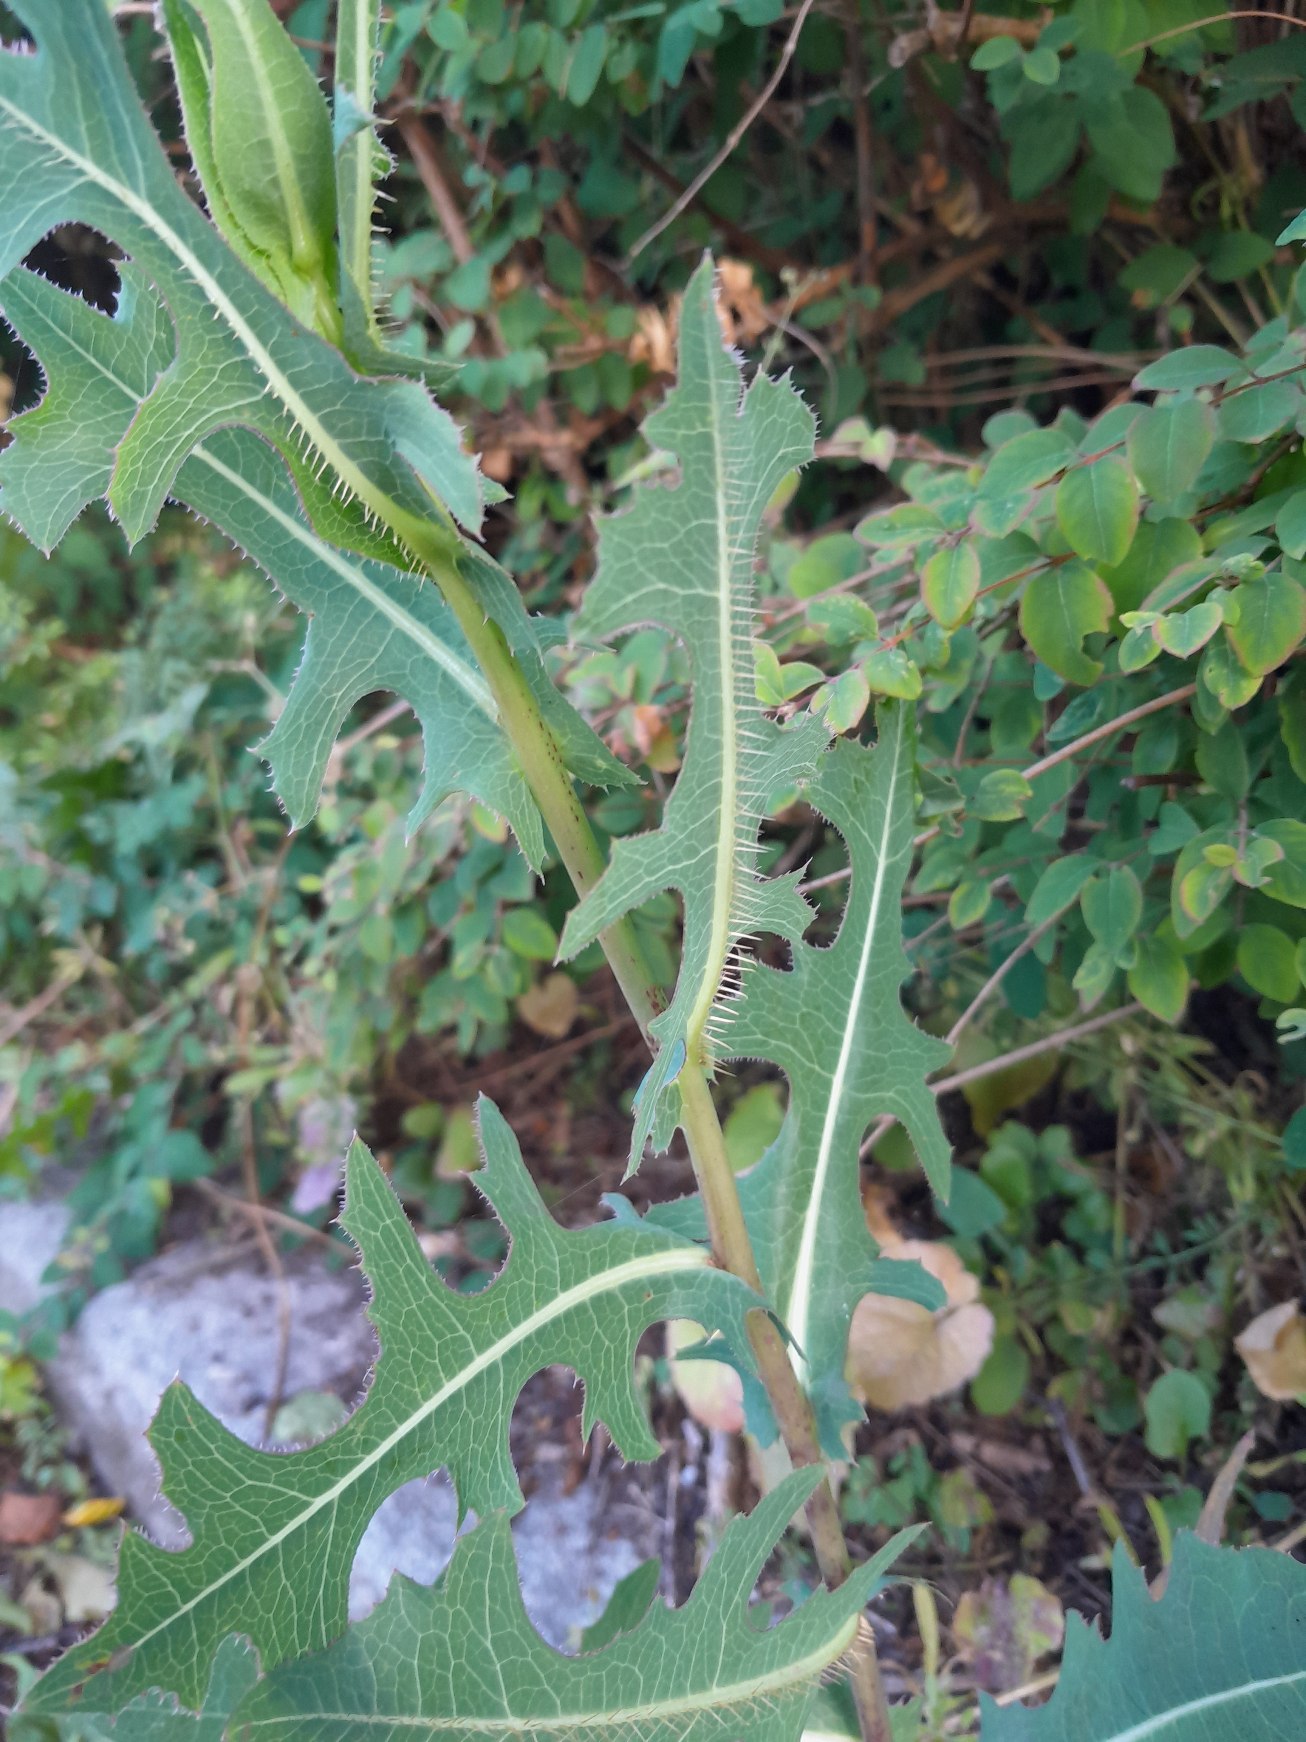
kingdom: Plantae
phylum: Tracheophyta
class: Magnoliopsida
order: Asterales
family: Asteraceae
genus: Lactuca
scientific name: Lactuca serriola
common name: Tornet salat
